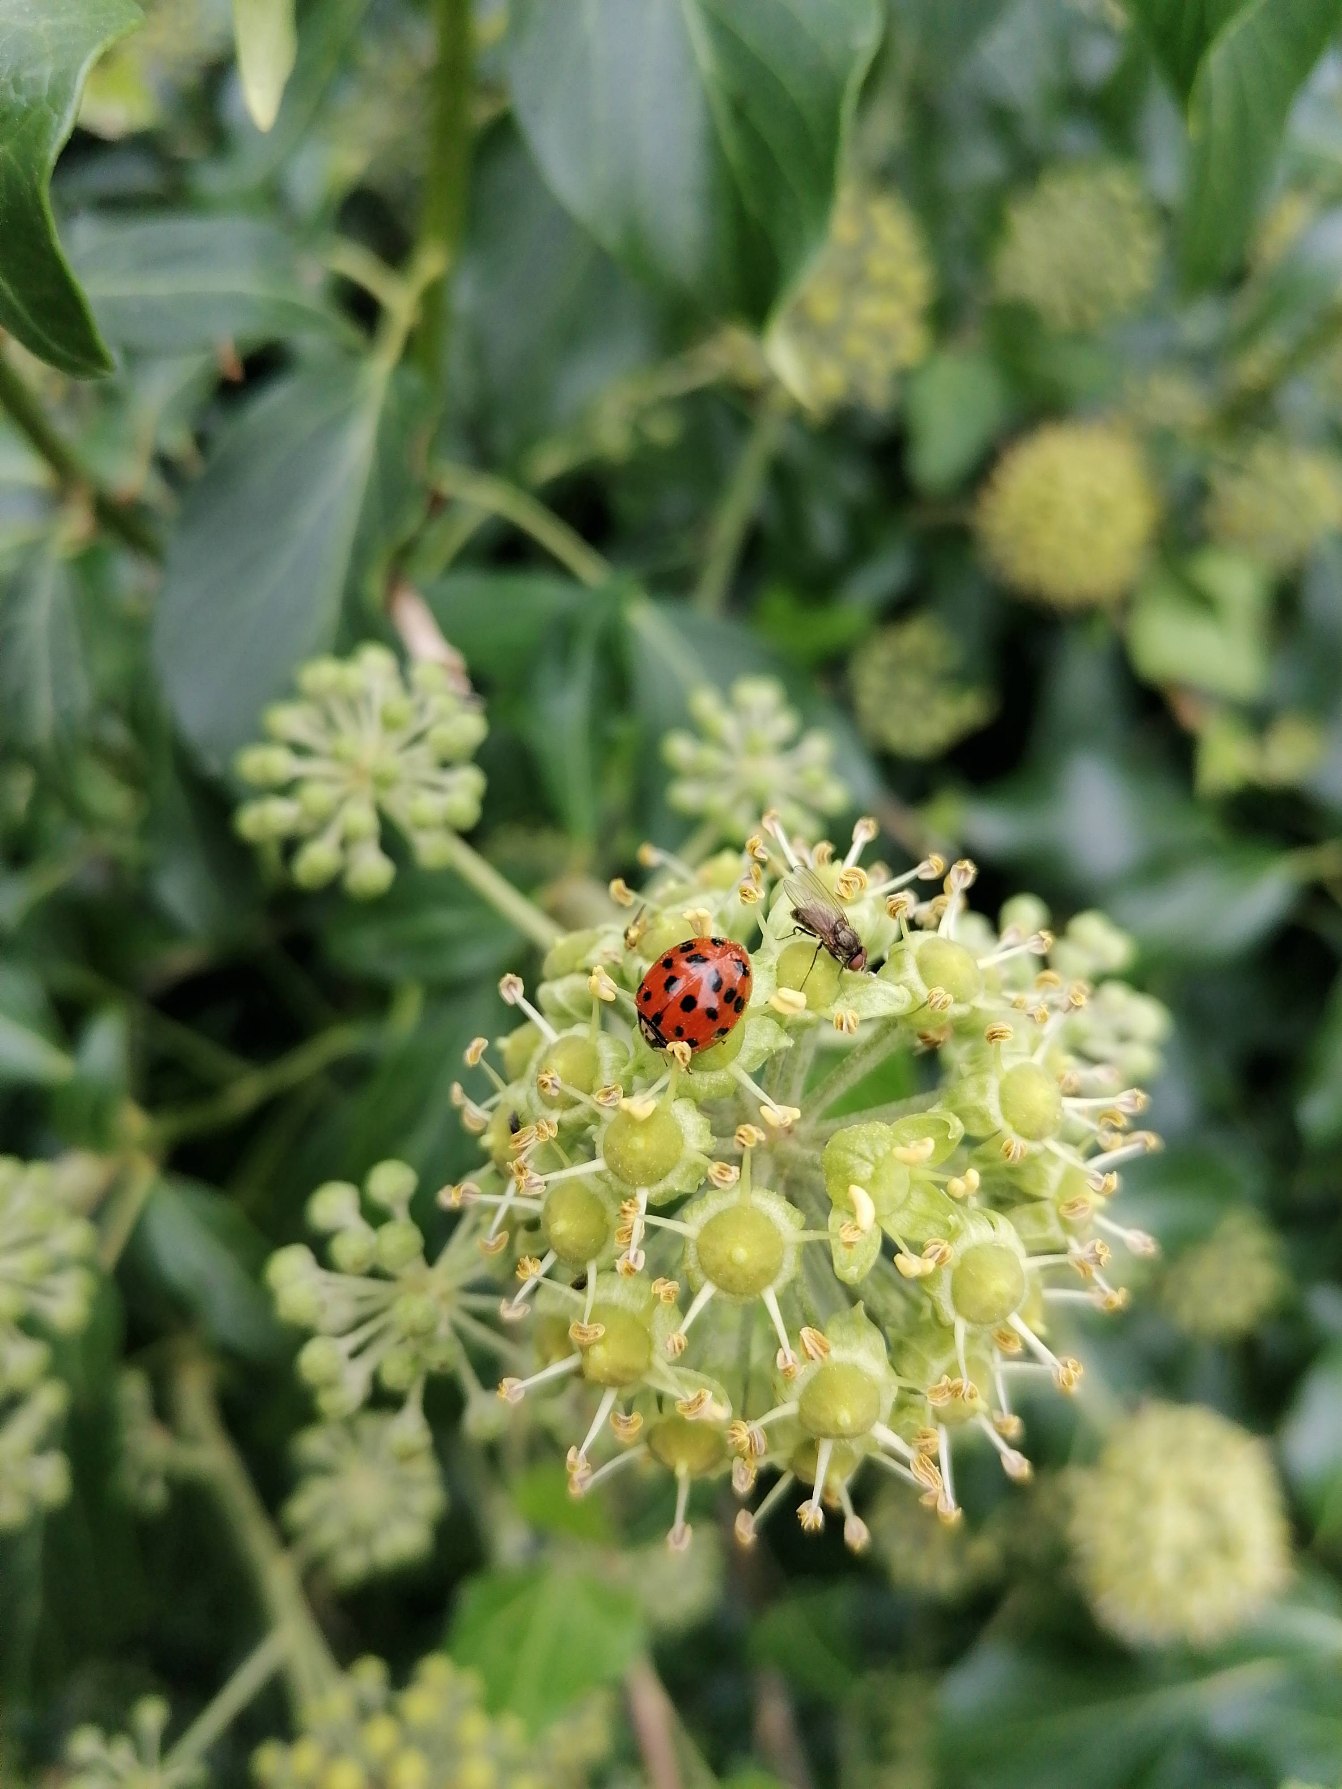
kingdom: Plantae
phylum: Tracheophyta
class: Magnoliopsida
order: Apiales
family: Araliaceae
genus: Hedera
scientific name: Hedera helix
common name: Vedbend
